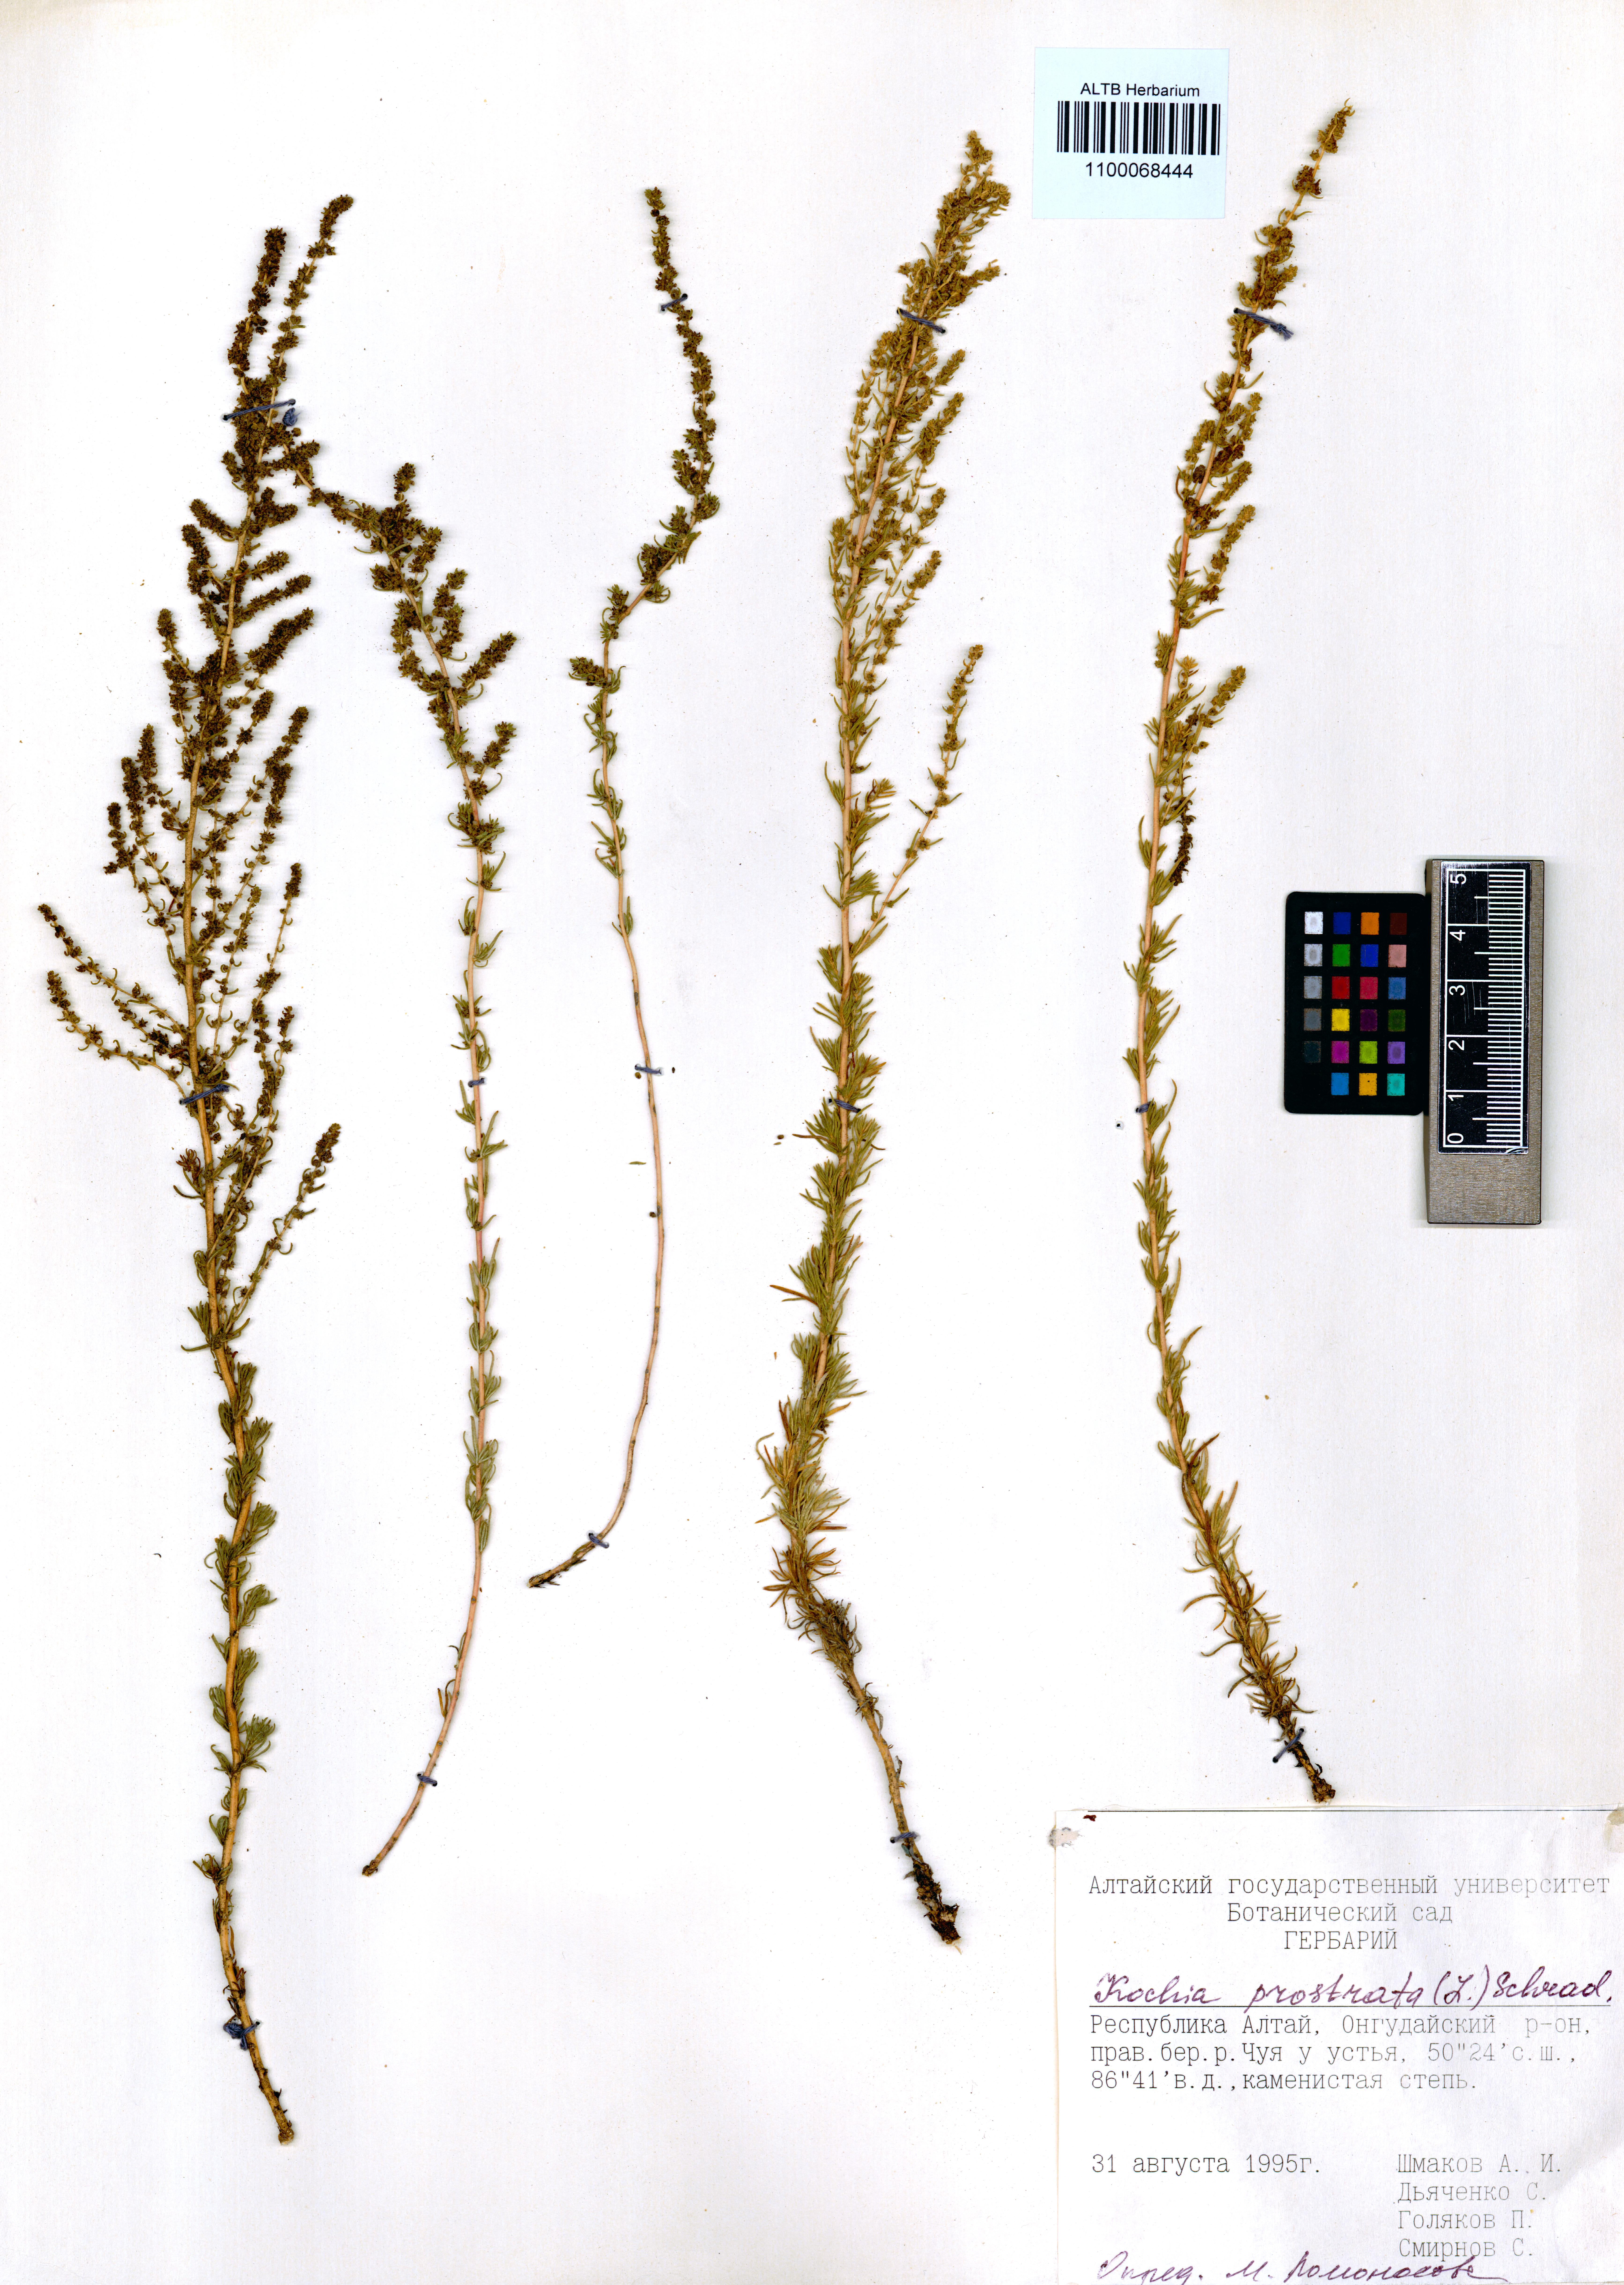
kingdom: Plantae
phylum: Tracheophyta
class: Magnoliopsida
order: Caryophyllales
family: Amaranthaceae
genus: Bassia
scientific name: Bassia prostrata
